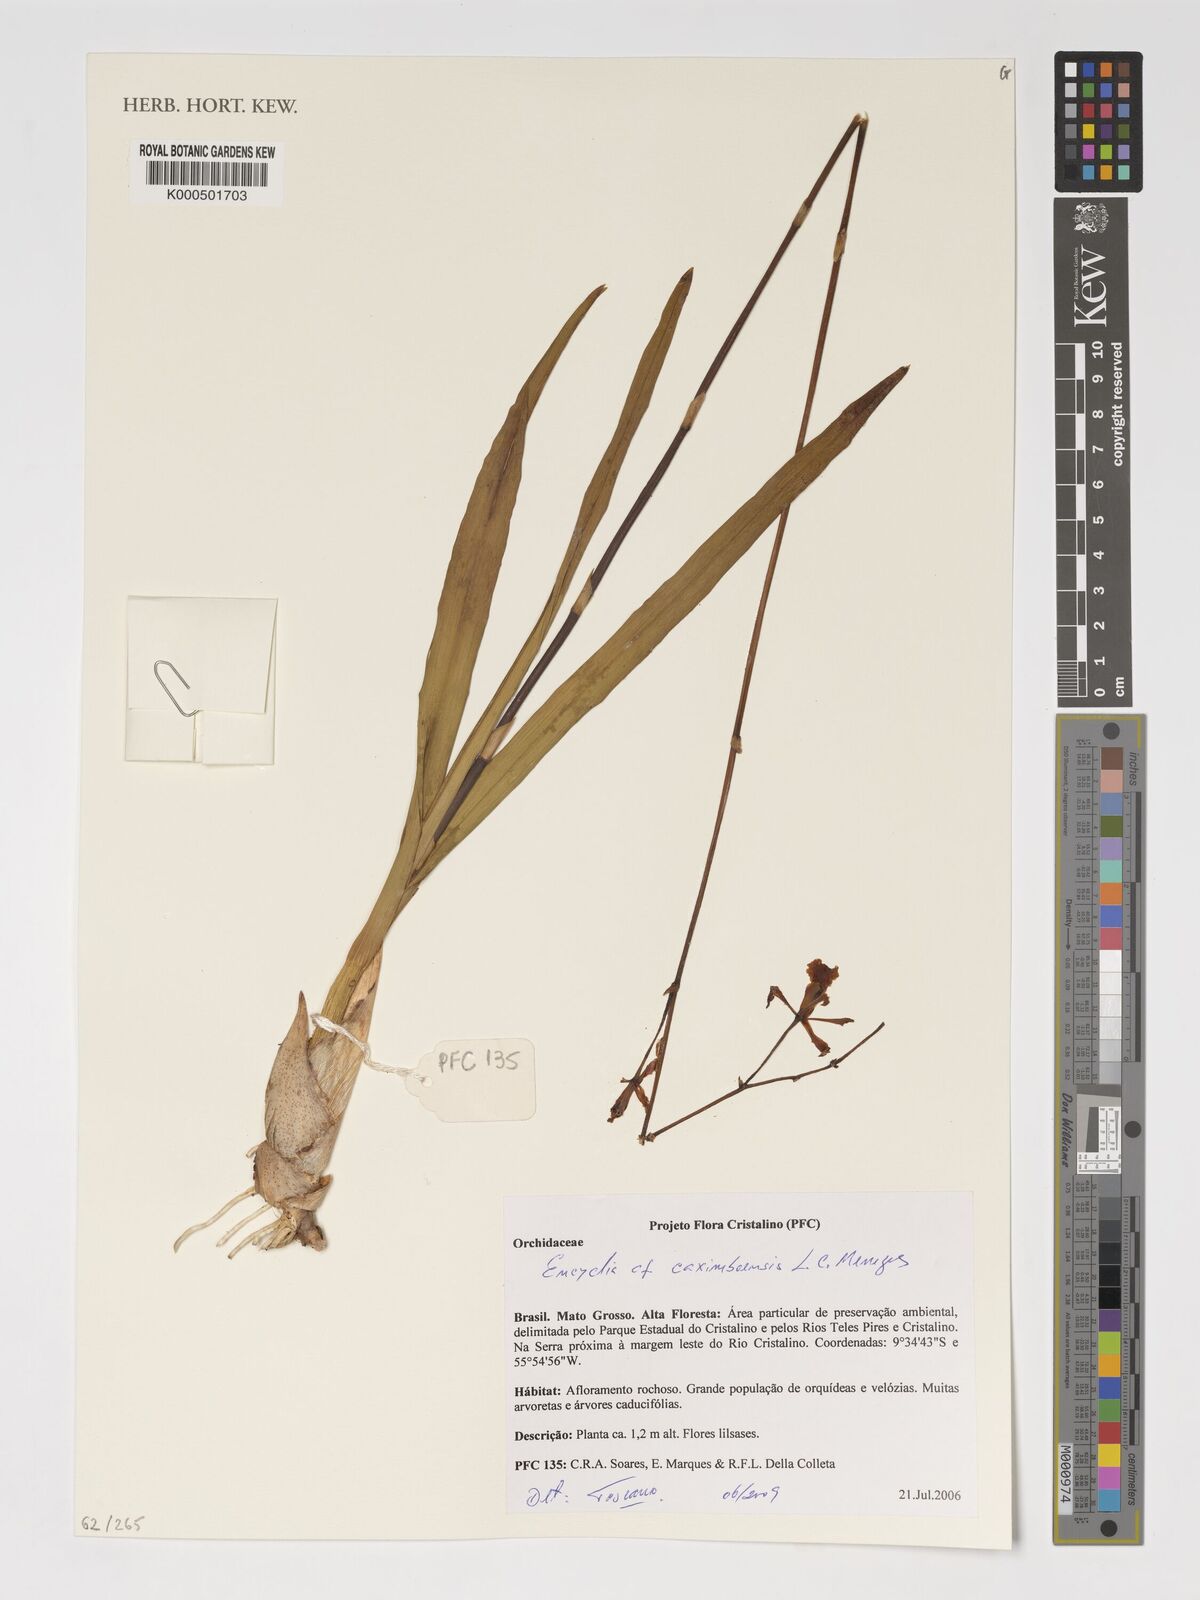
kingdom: Plantae
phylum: Tracheophyta
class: Liliopsida
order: Asparagales
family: Orchidaceae
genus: Encyclia
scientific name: Encyclia xerophytica
